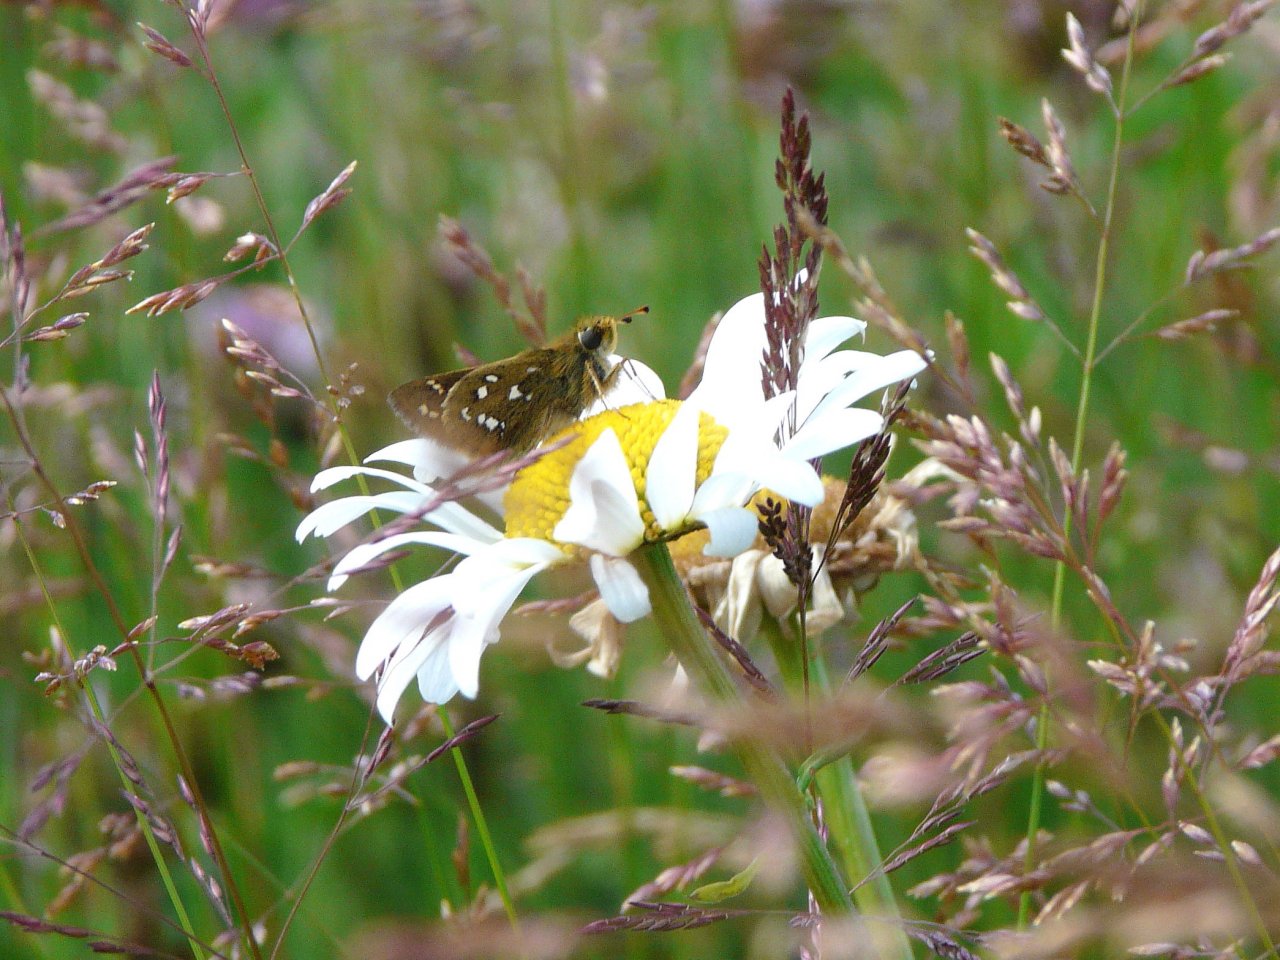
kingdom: Animalia
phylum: Arthropoda
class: Insecta
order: Lepidoptera
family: Hesperiidae
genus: Hesperia
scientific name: Hesperia comma
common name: Common Branded Skipper
